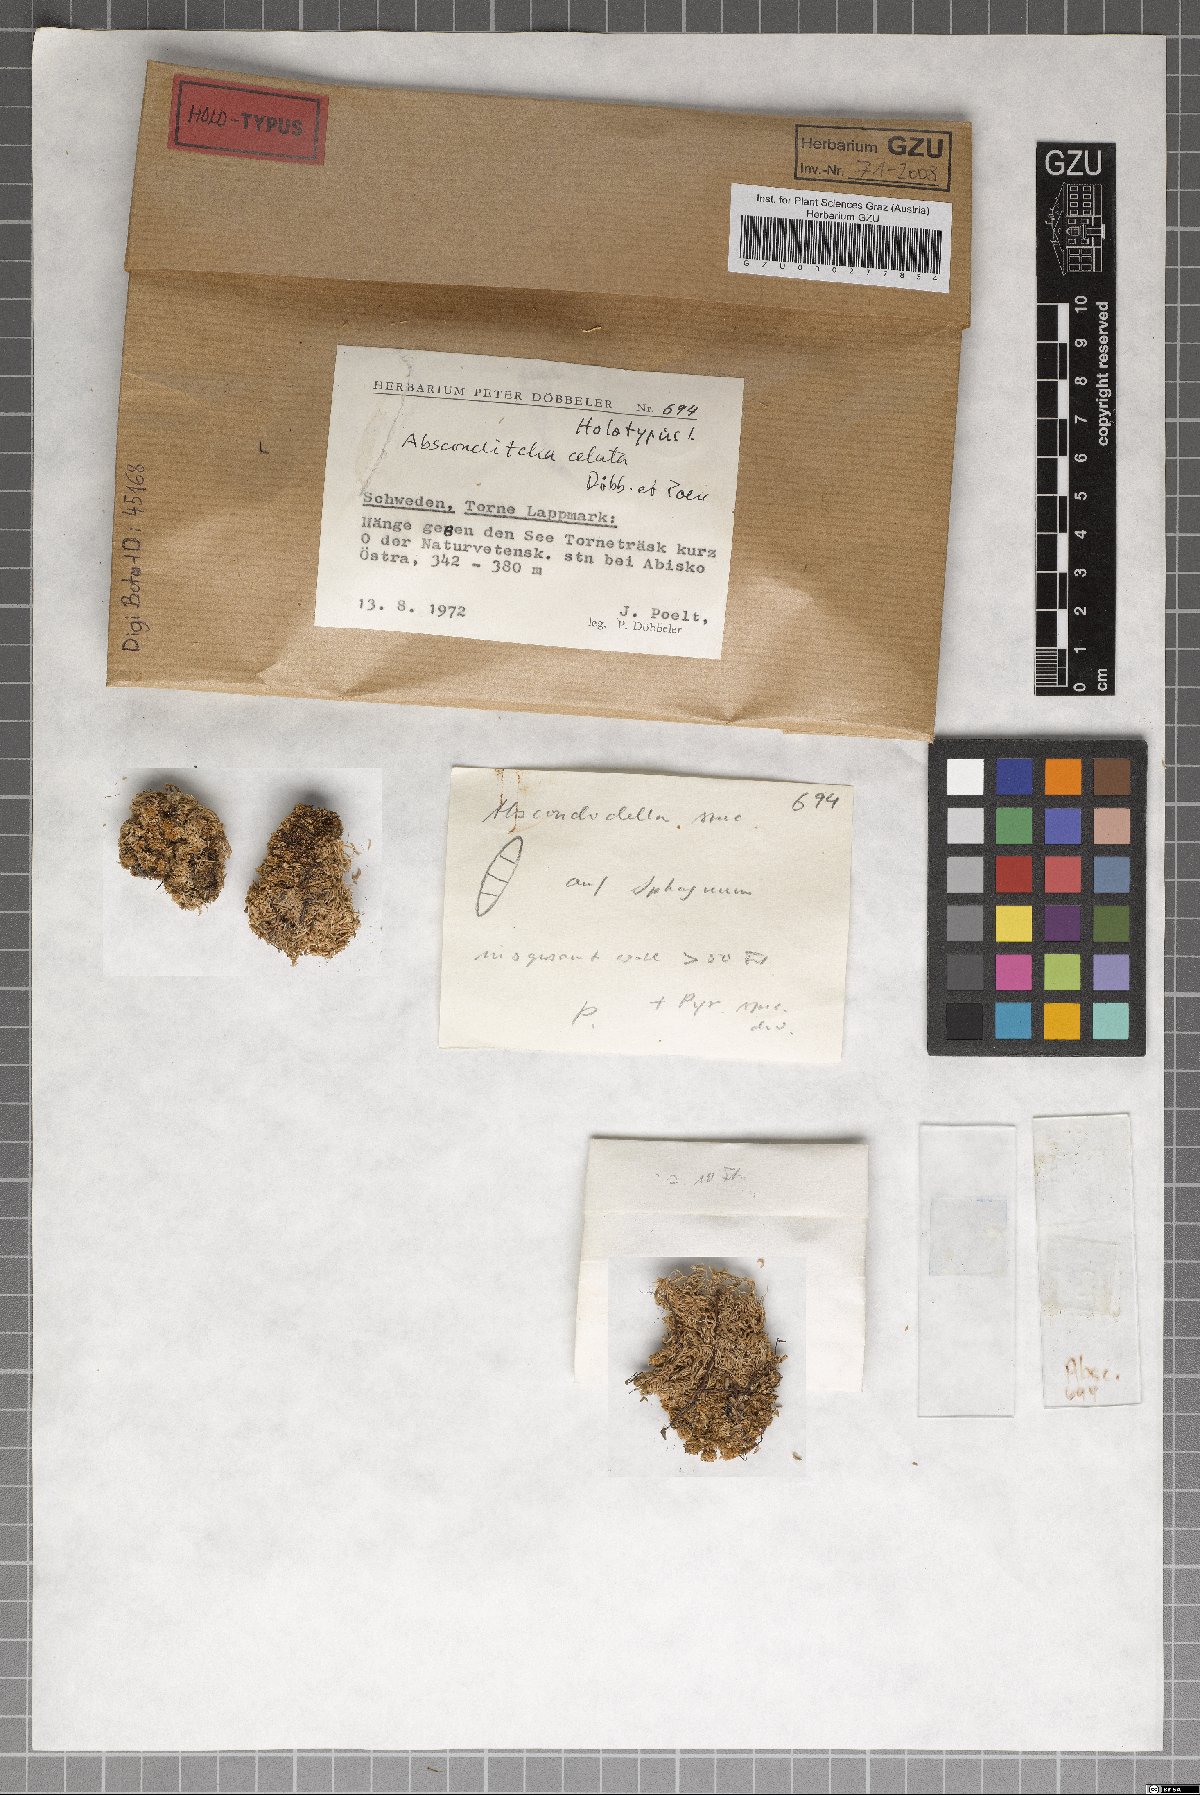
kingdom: Fungi
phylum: Ascomycota
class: Lecanoromycetes
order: Ostropales
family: Stictidaceae
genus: Absconditella
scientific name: Absconditella celata
